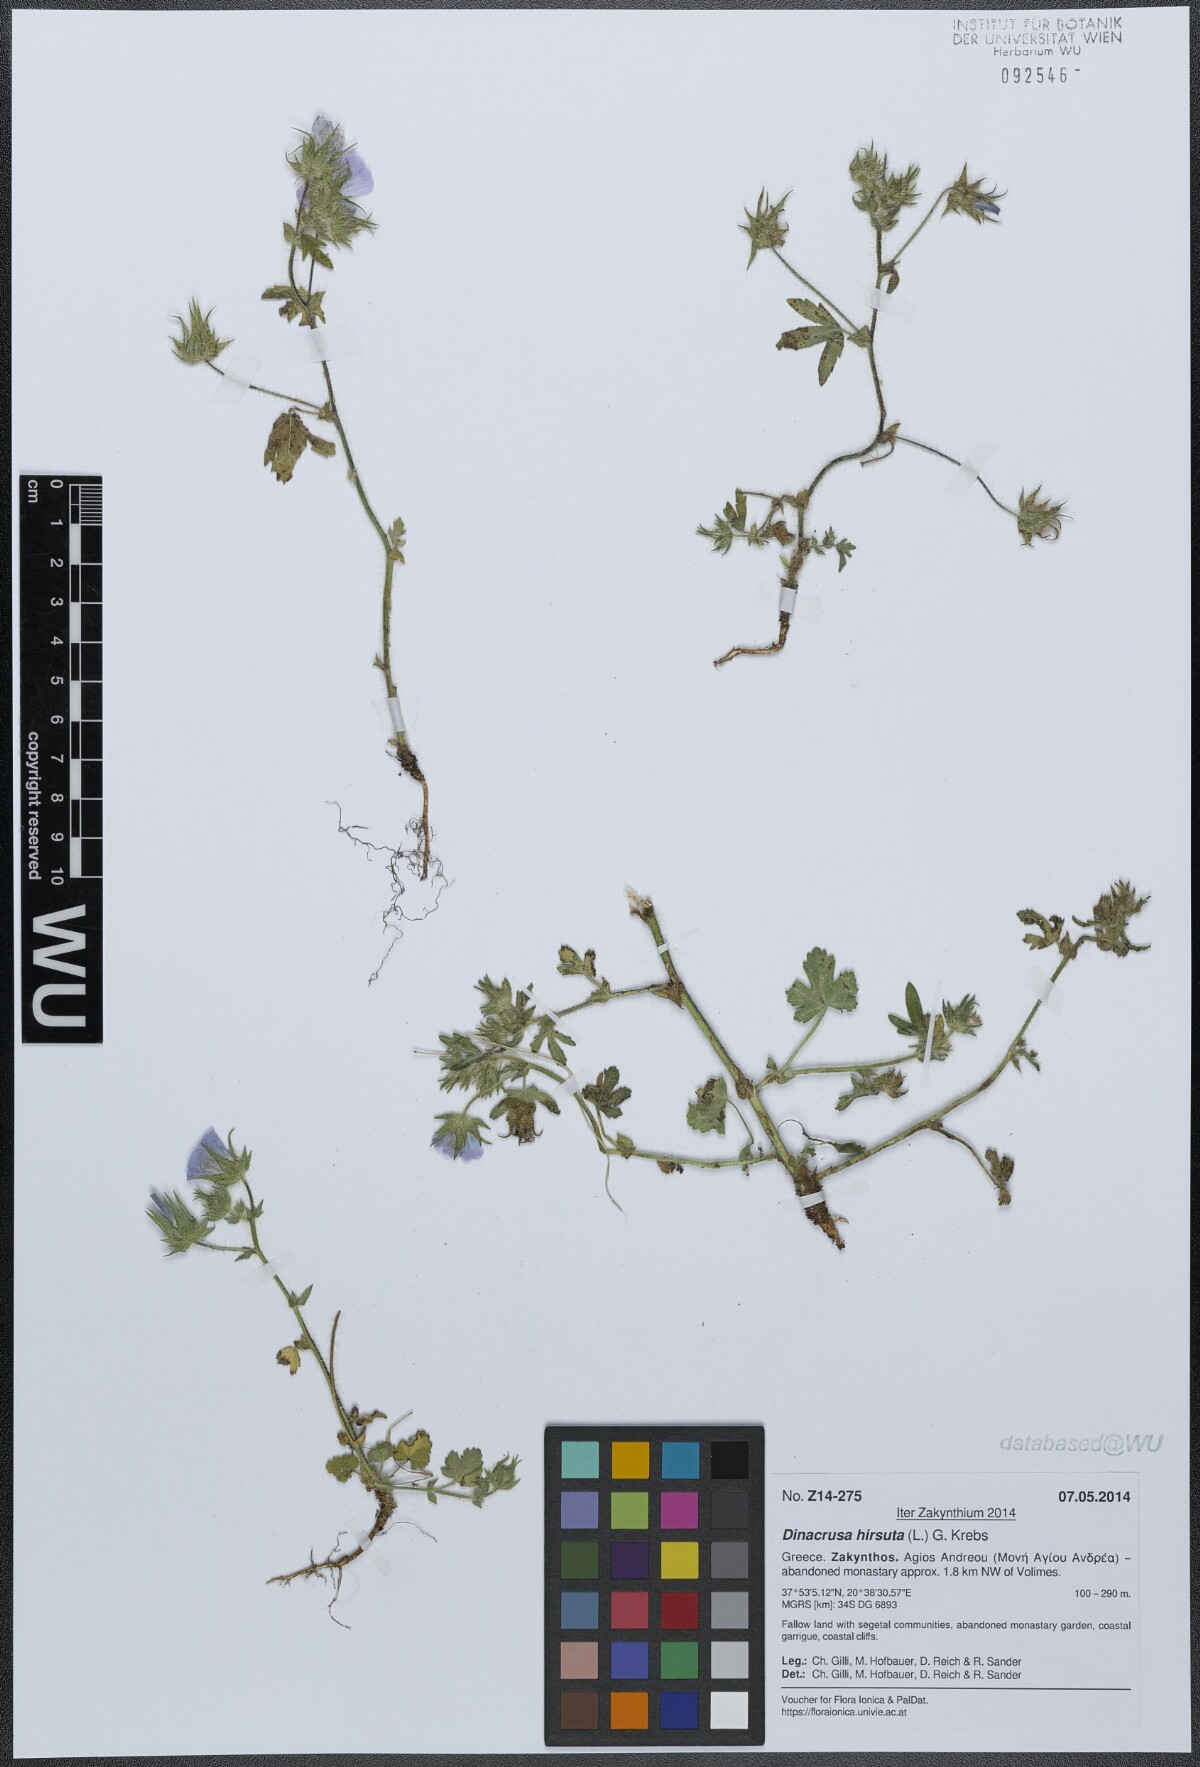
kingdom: Plantae
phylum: Tracheophyta
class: Magnoliopsida
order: Malvales
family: Malvaceae
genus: Althaea
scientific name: Althaea hirsuta
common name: Rough marsh-mallow
